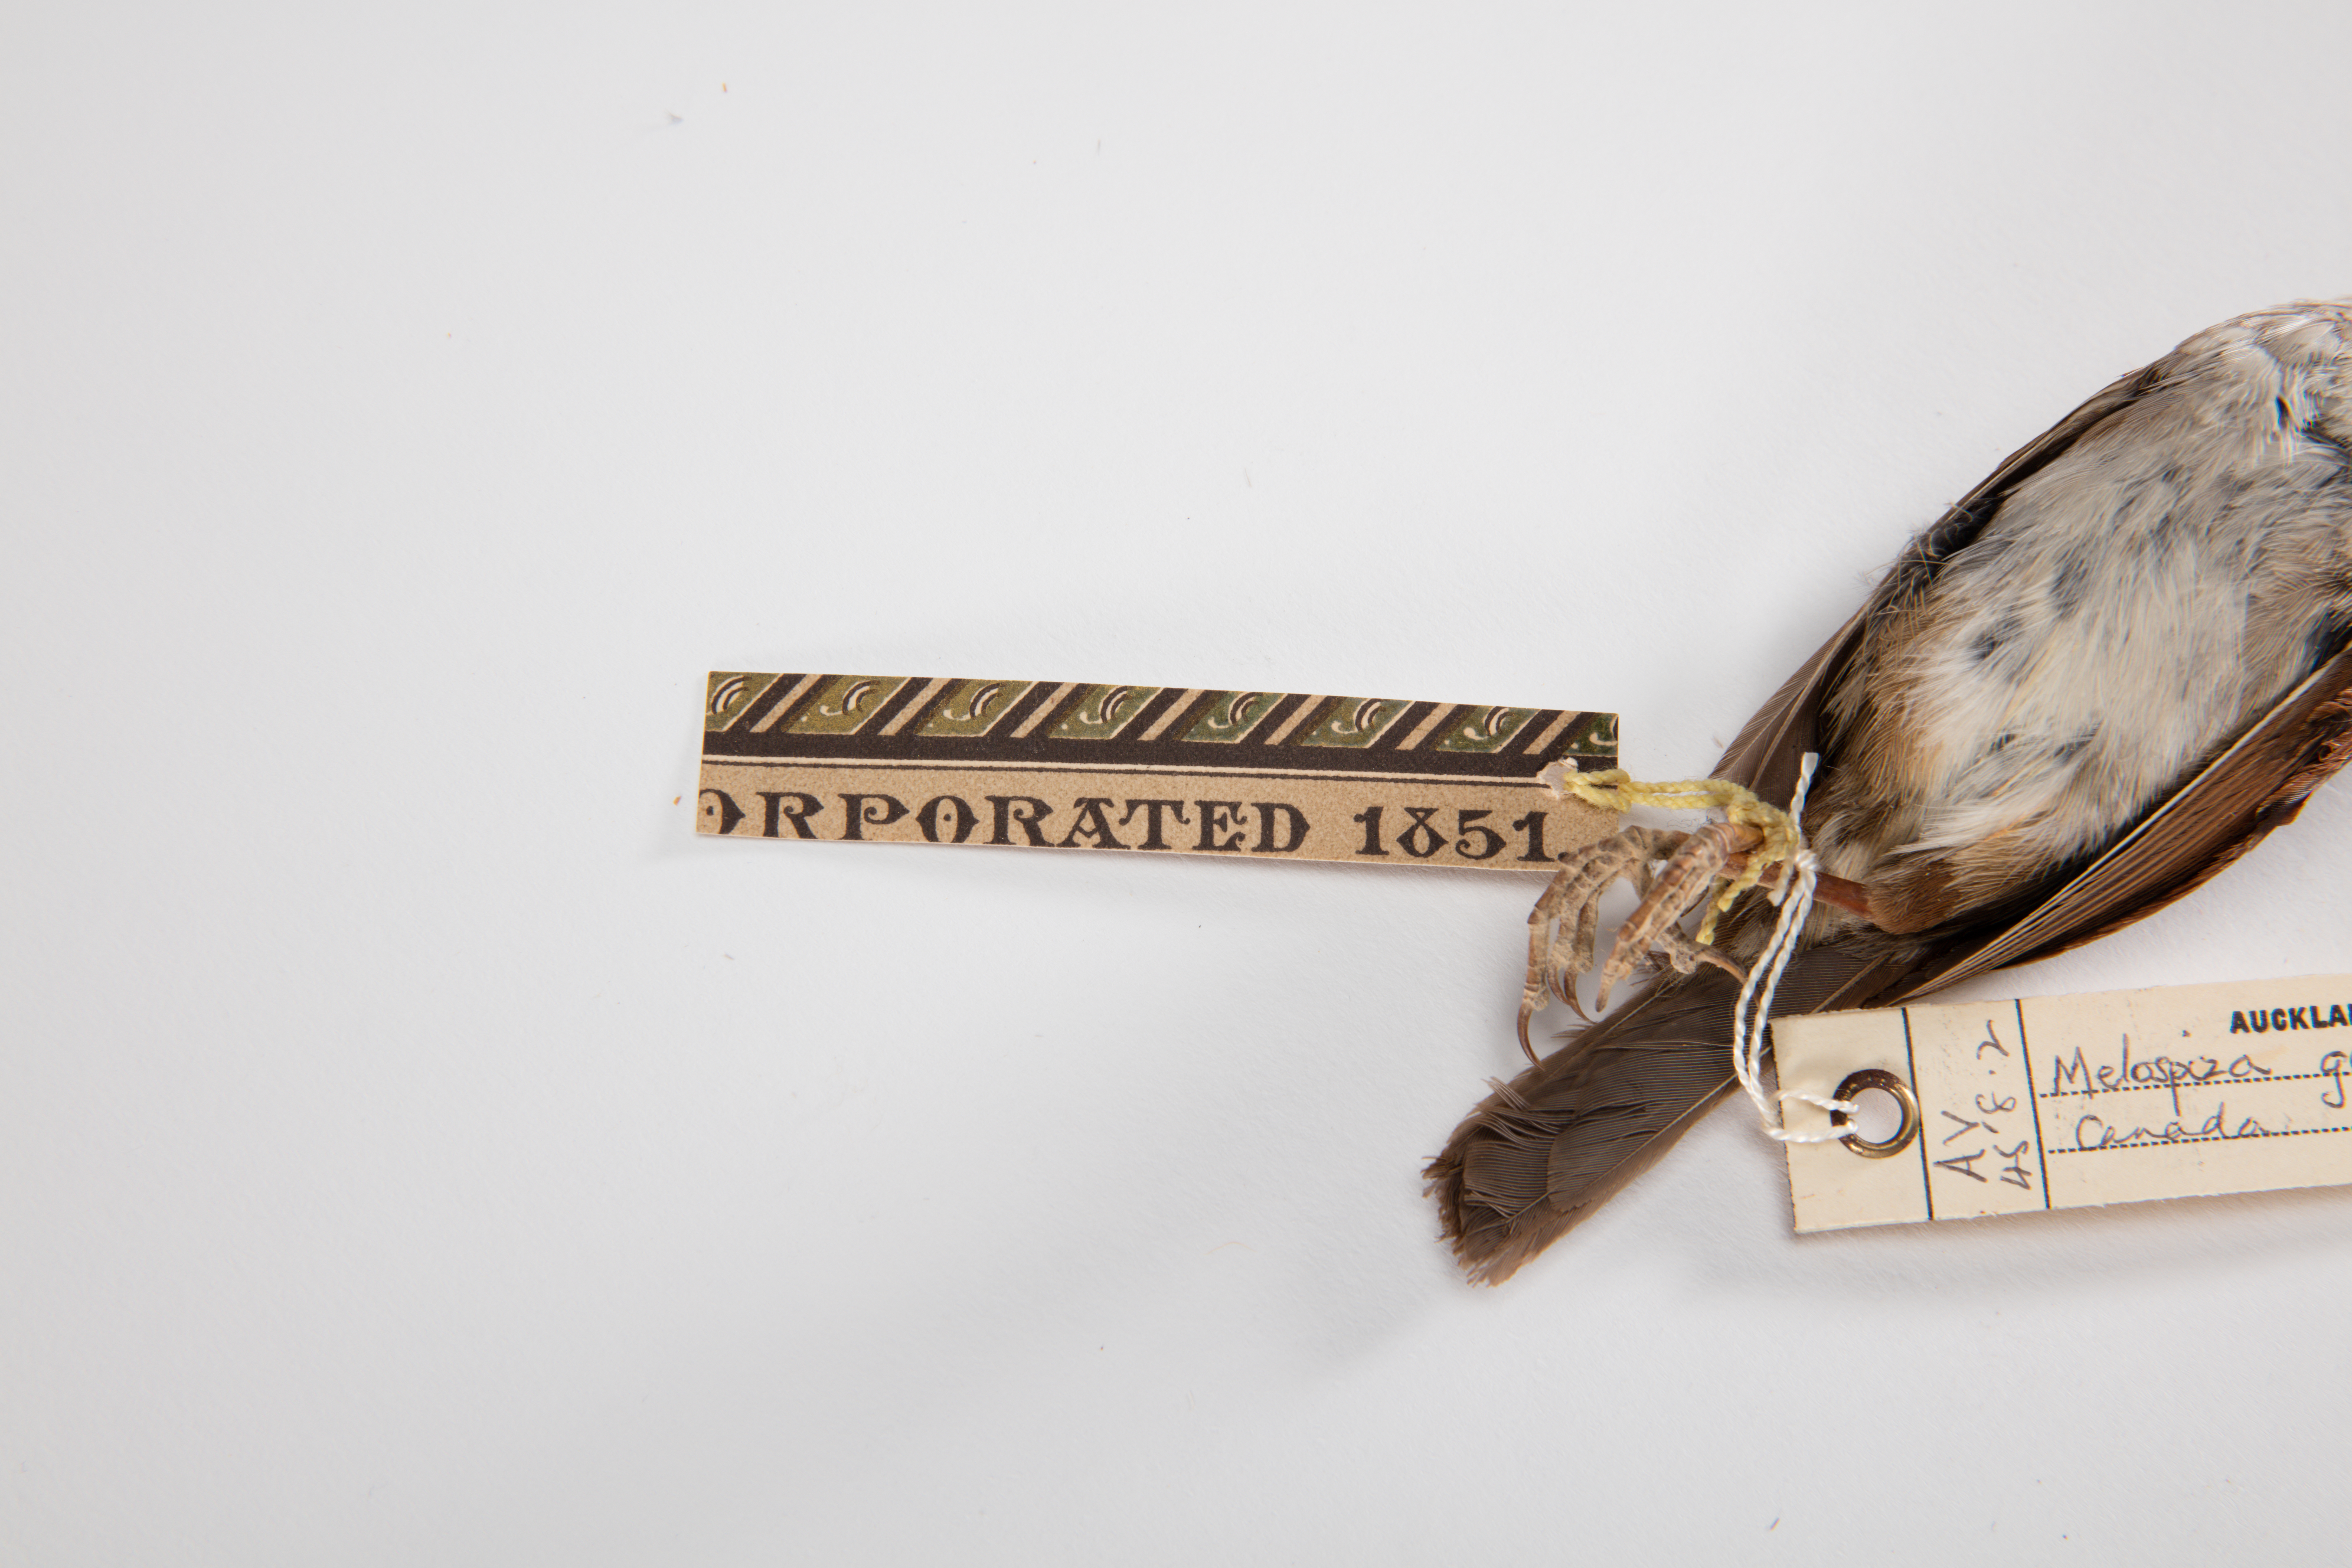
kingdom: Animalia
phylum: Chordata
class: Aves
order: Passeriformes
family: Passerellidae
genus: Melospiza
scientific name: Melospiza georgiana
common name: Swamp sparrow
